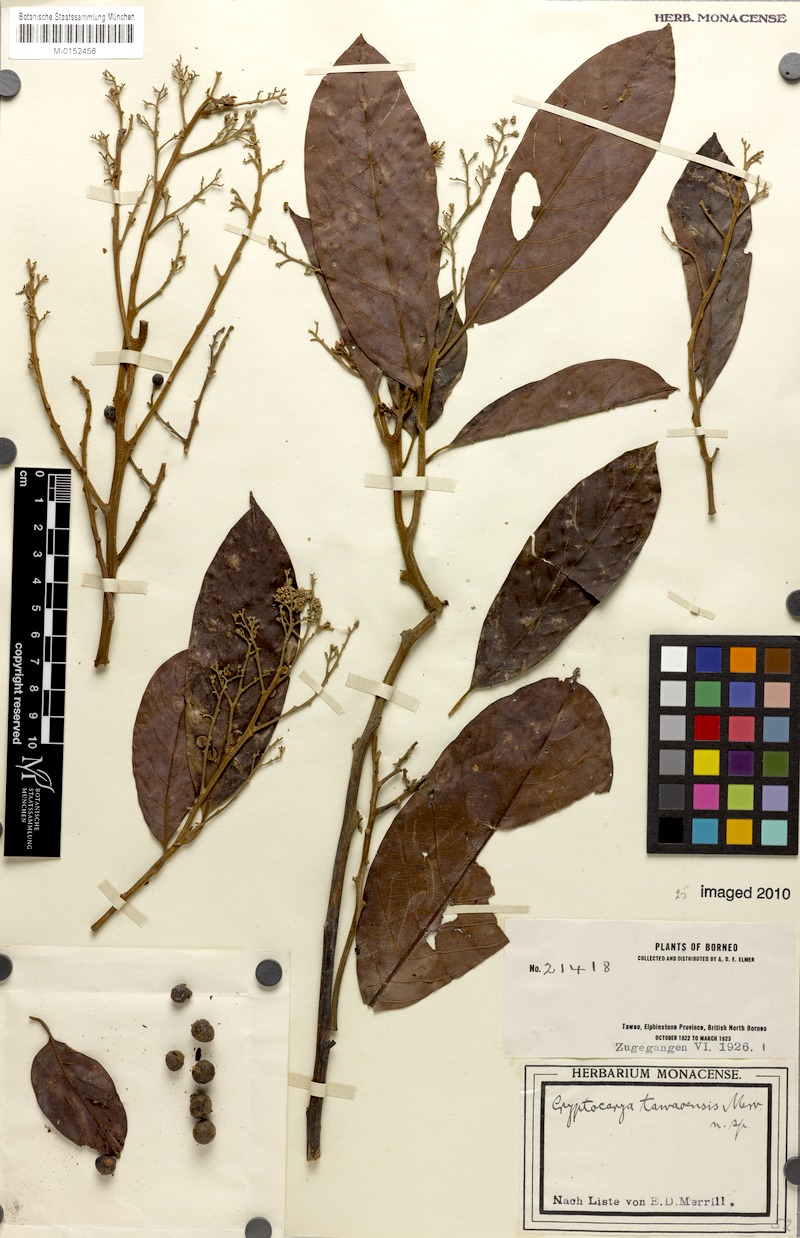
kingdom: Plantae
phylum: Tracheophyta
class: Magnoliopsida
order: Laurales
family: Lauraceae
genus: Cryptocarya
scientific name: Cryptocarya tawaensis
